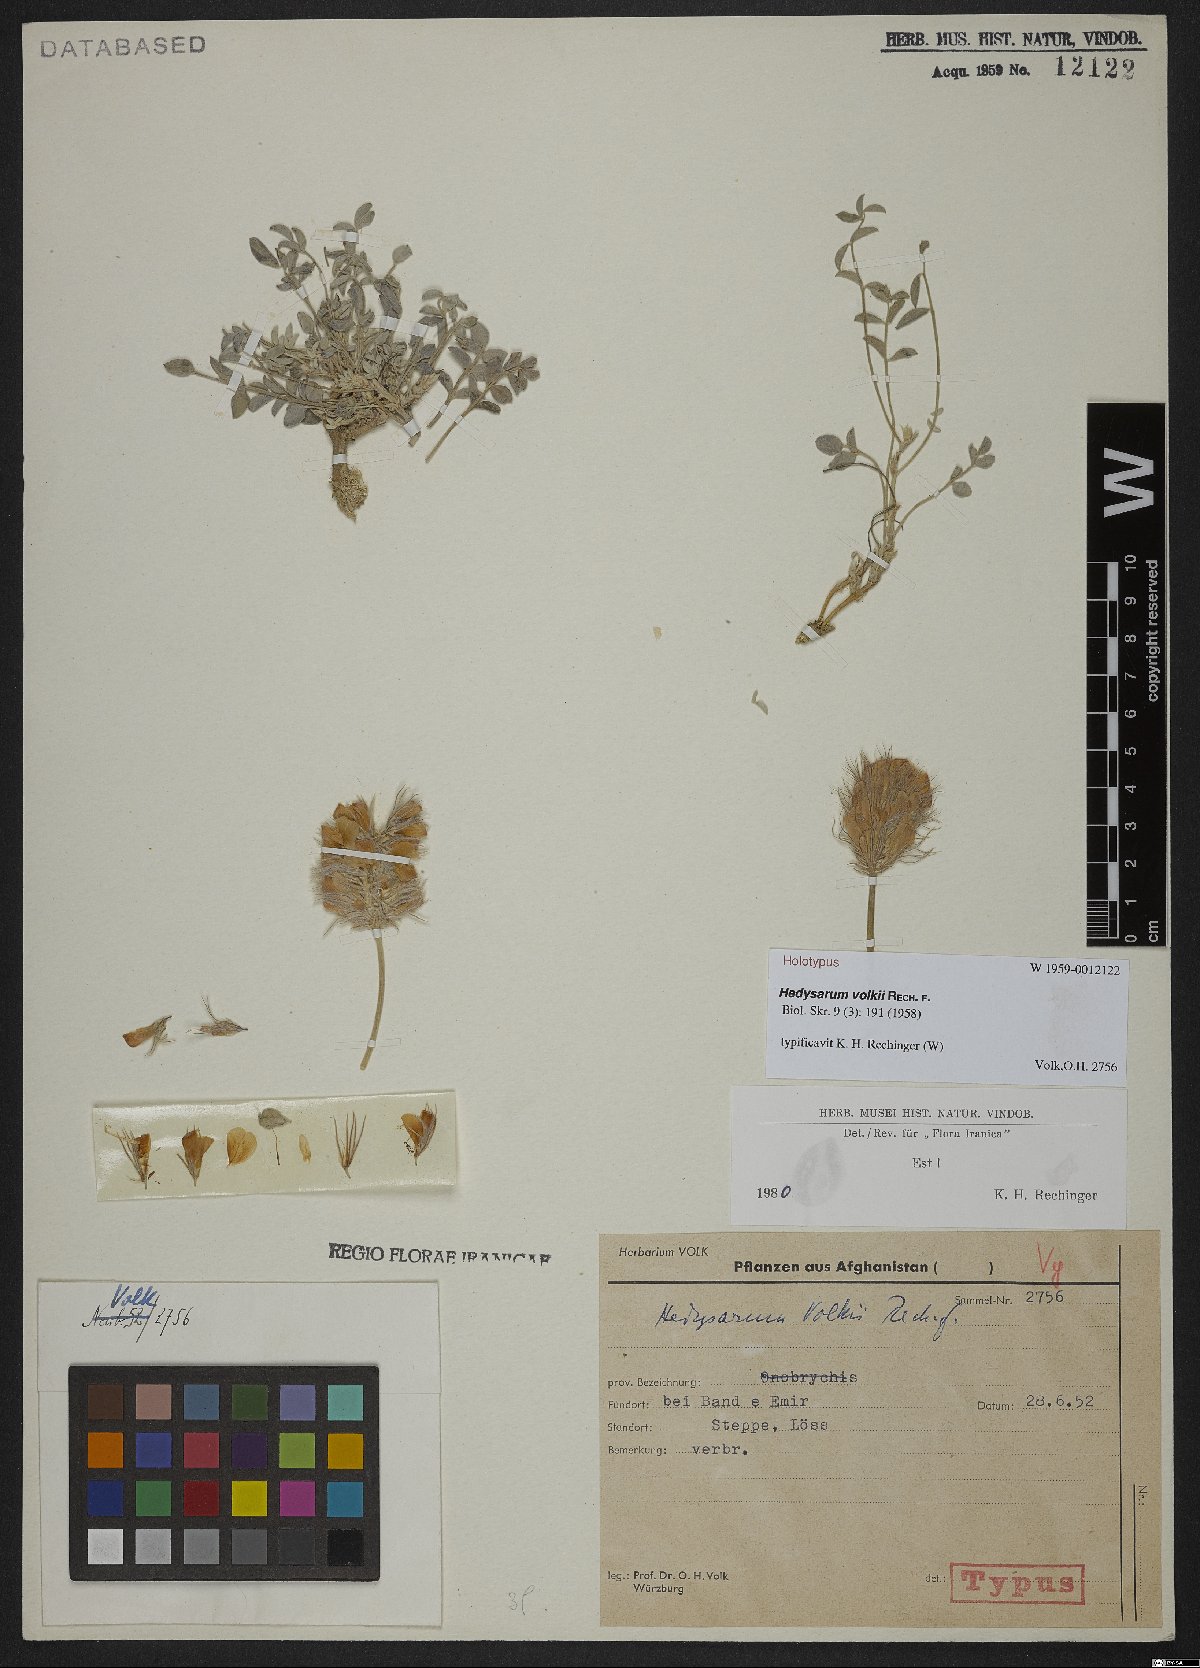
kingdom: Plantae
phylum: Tracheophyta
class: Magnoliopsida
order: Fabales
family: Fabaceae
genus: Hedysarum
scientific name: Hedysarum volkii
